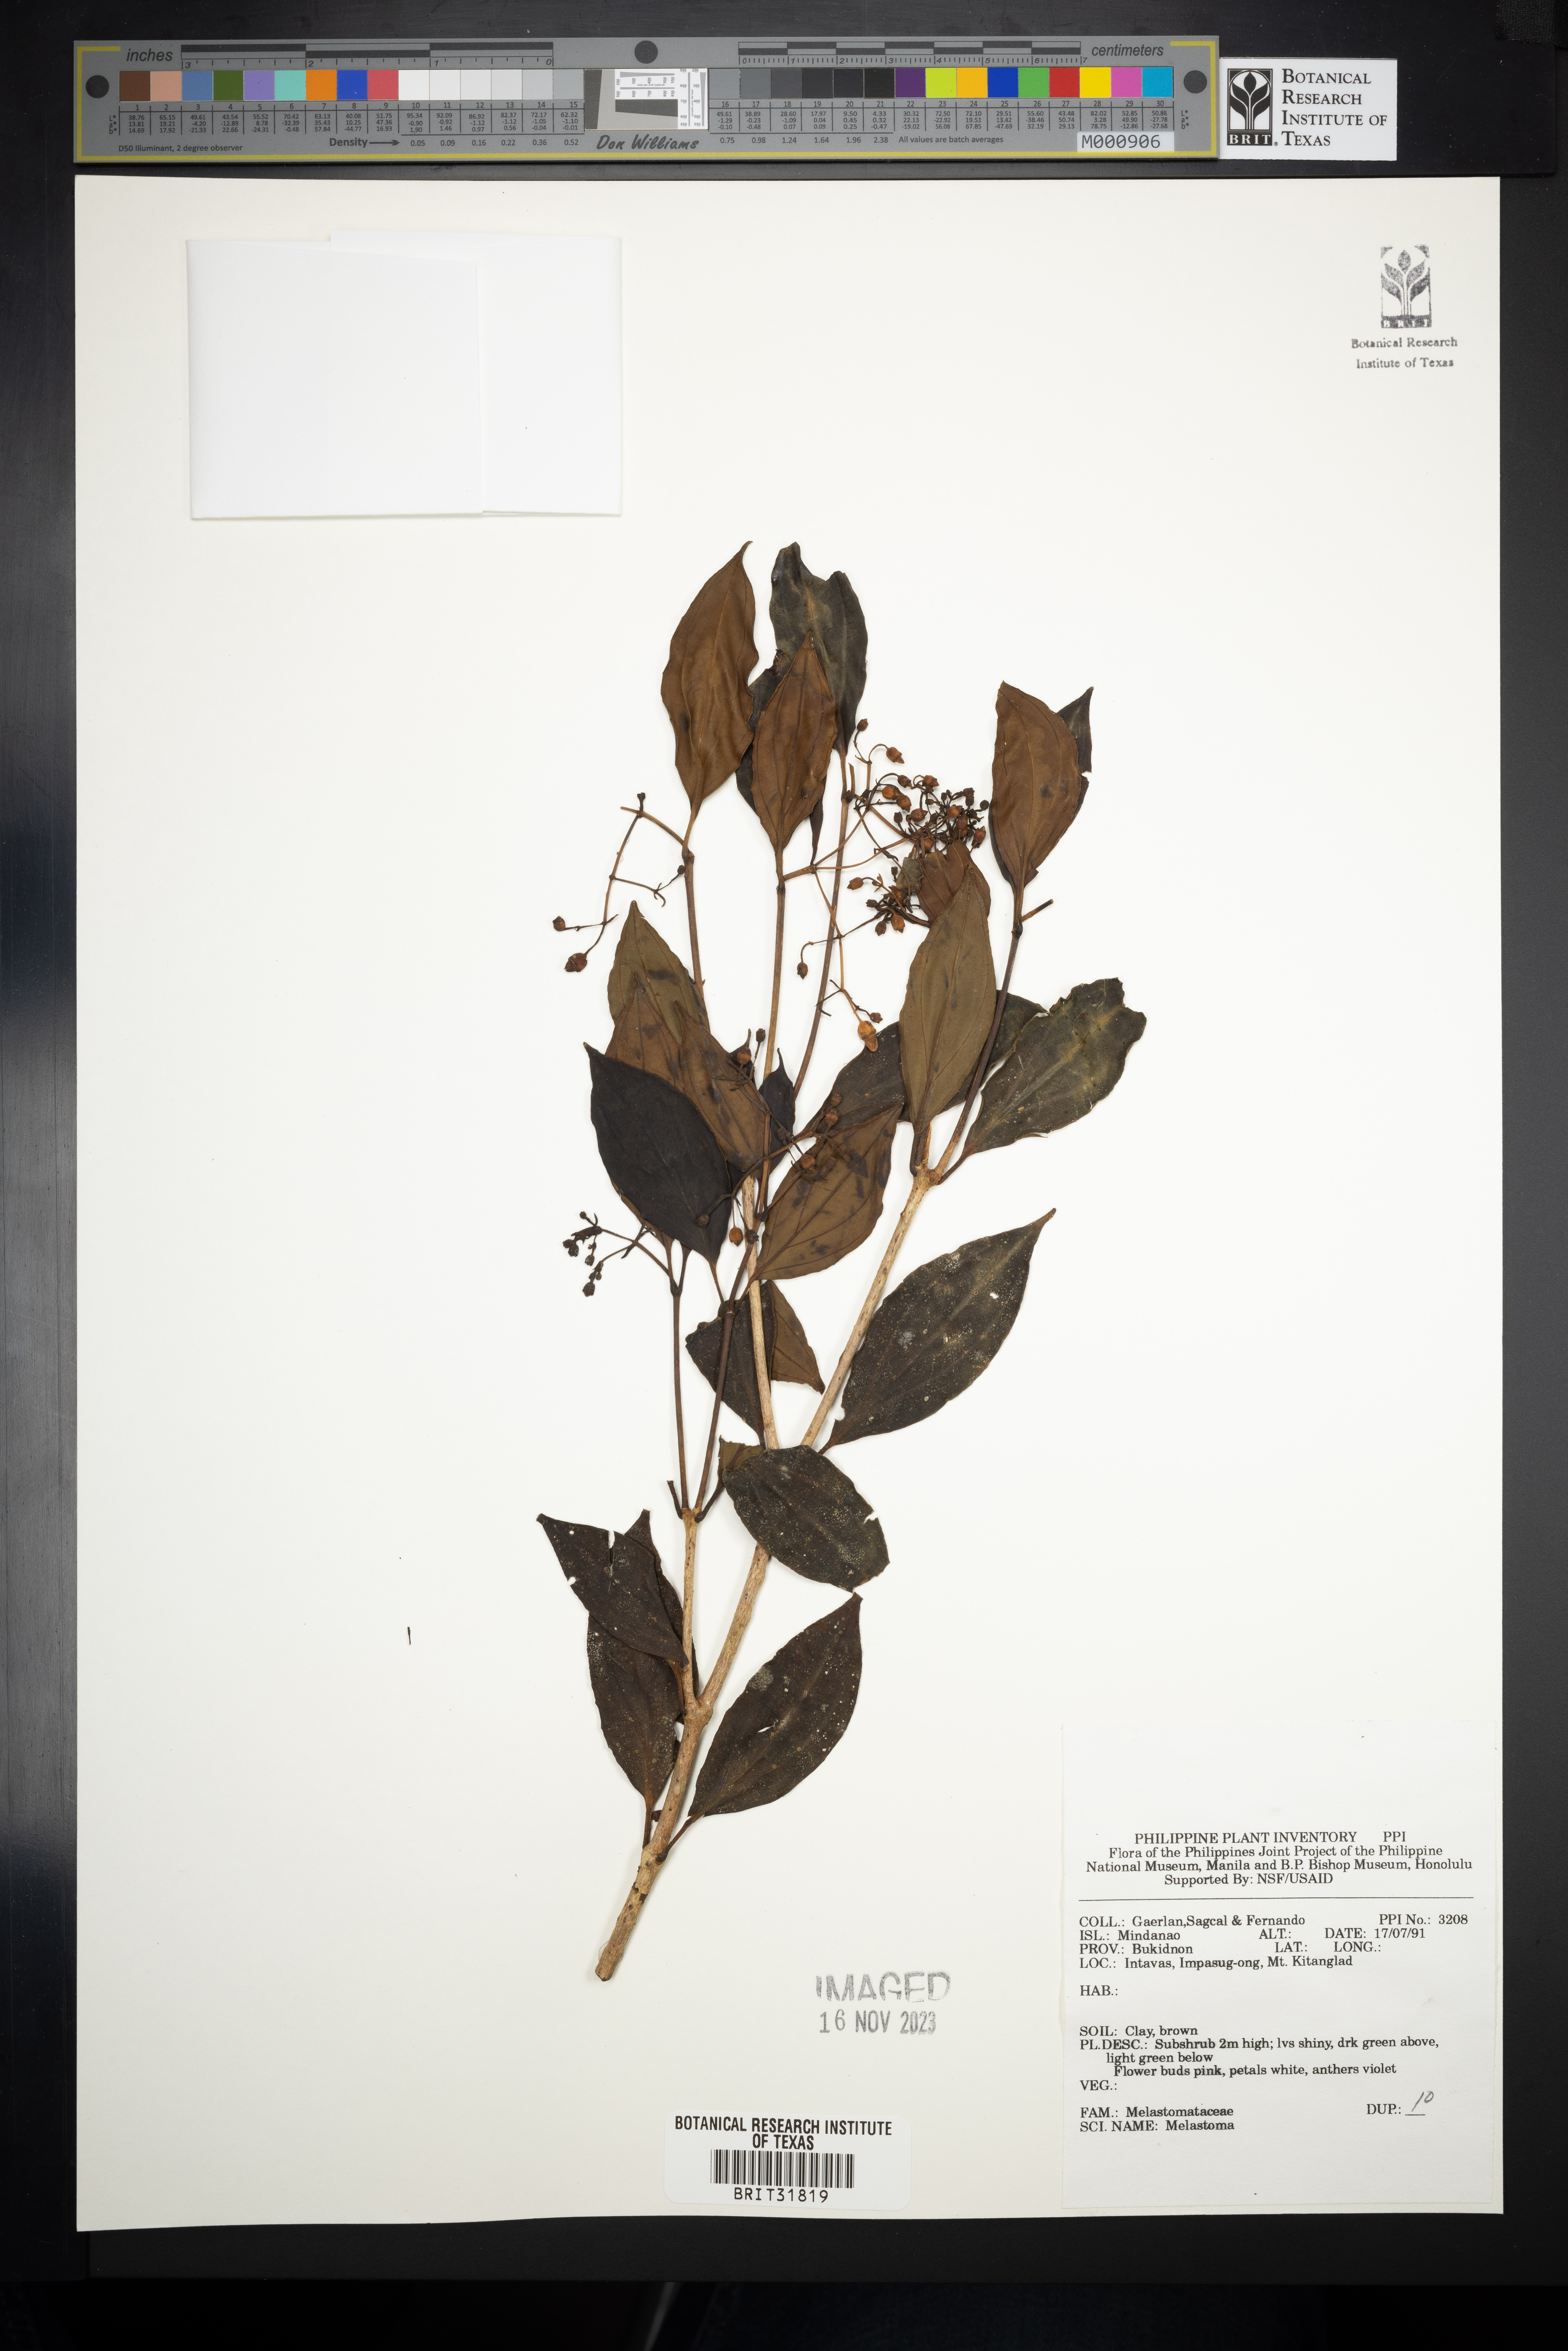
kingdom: Plantae
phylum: Tracheophyta
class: Magnoliopsida
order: Myrtales
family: Melastomataceae
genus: Melastoma
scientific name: Melastoma
